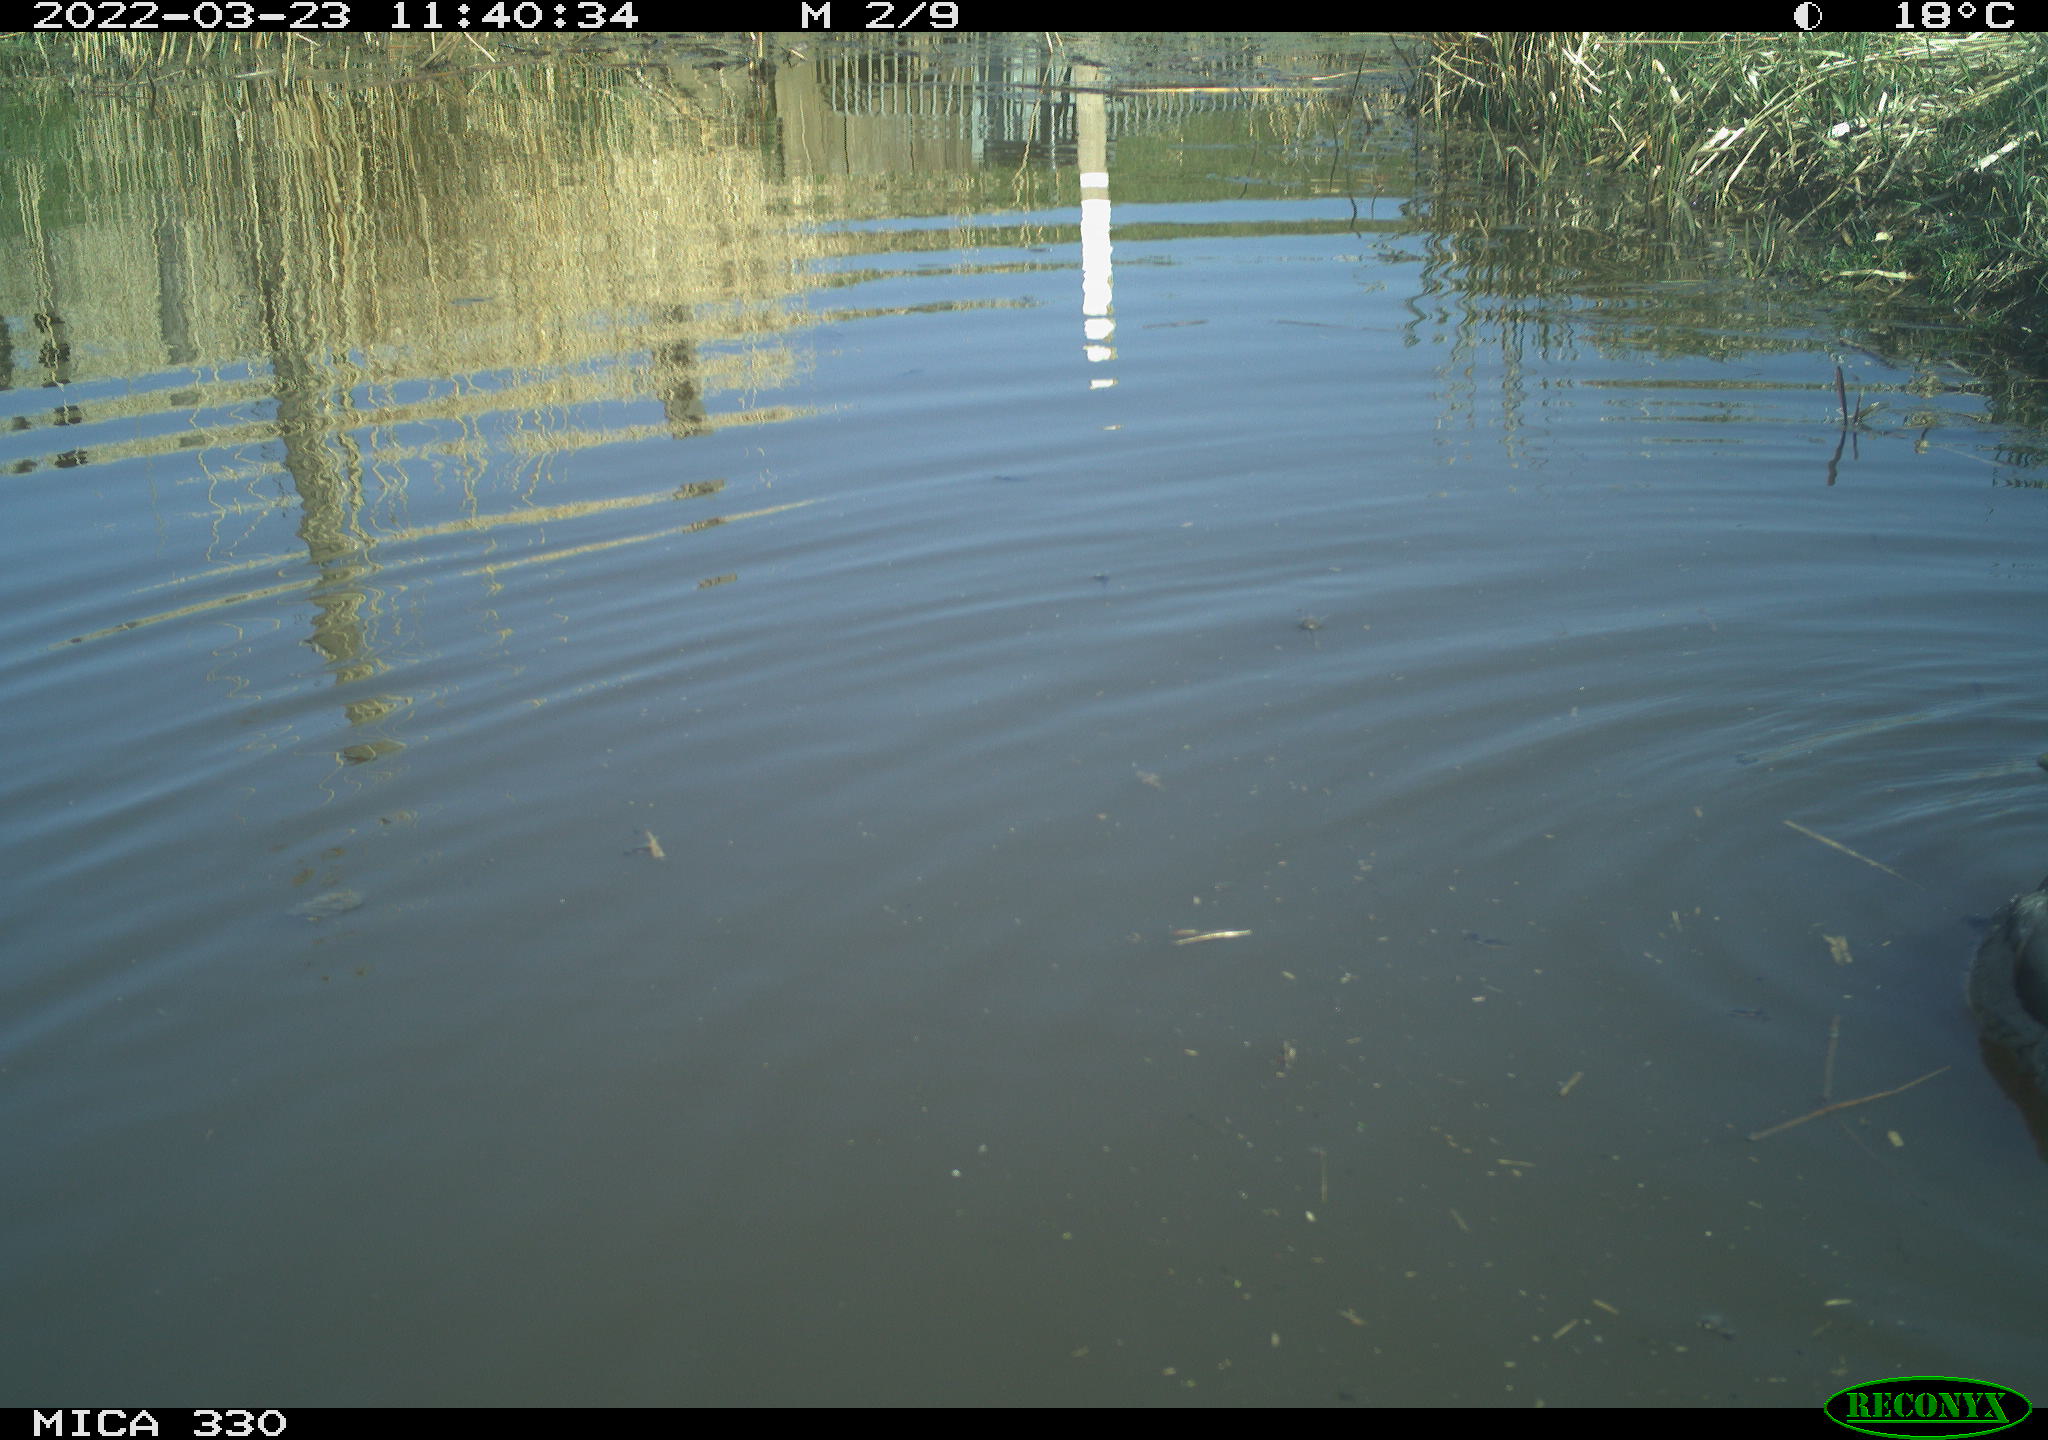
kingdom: Animalia
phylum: Chordata
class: Aves
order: Anseriformes
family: Anatidae
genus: Anas
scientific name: Anas platyrhynchos
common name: Mallard
